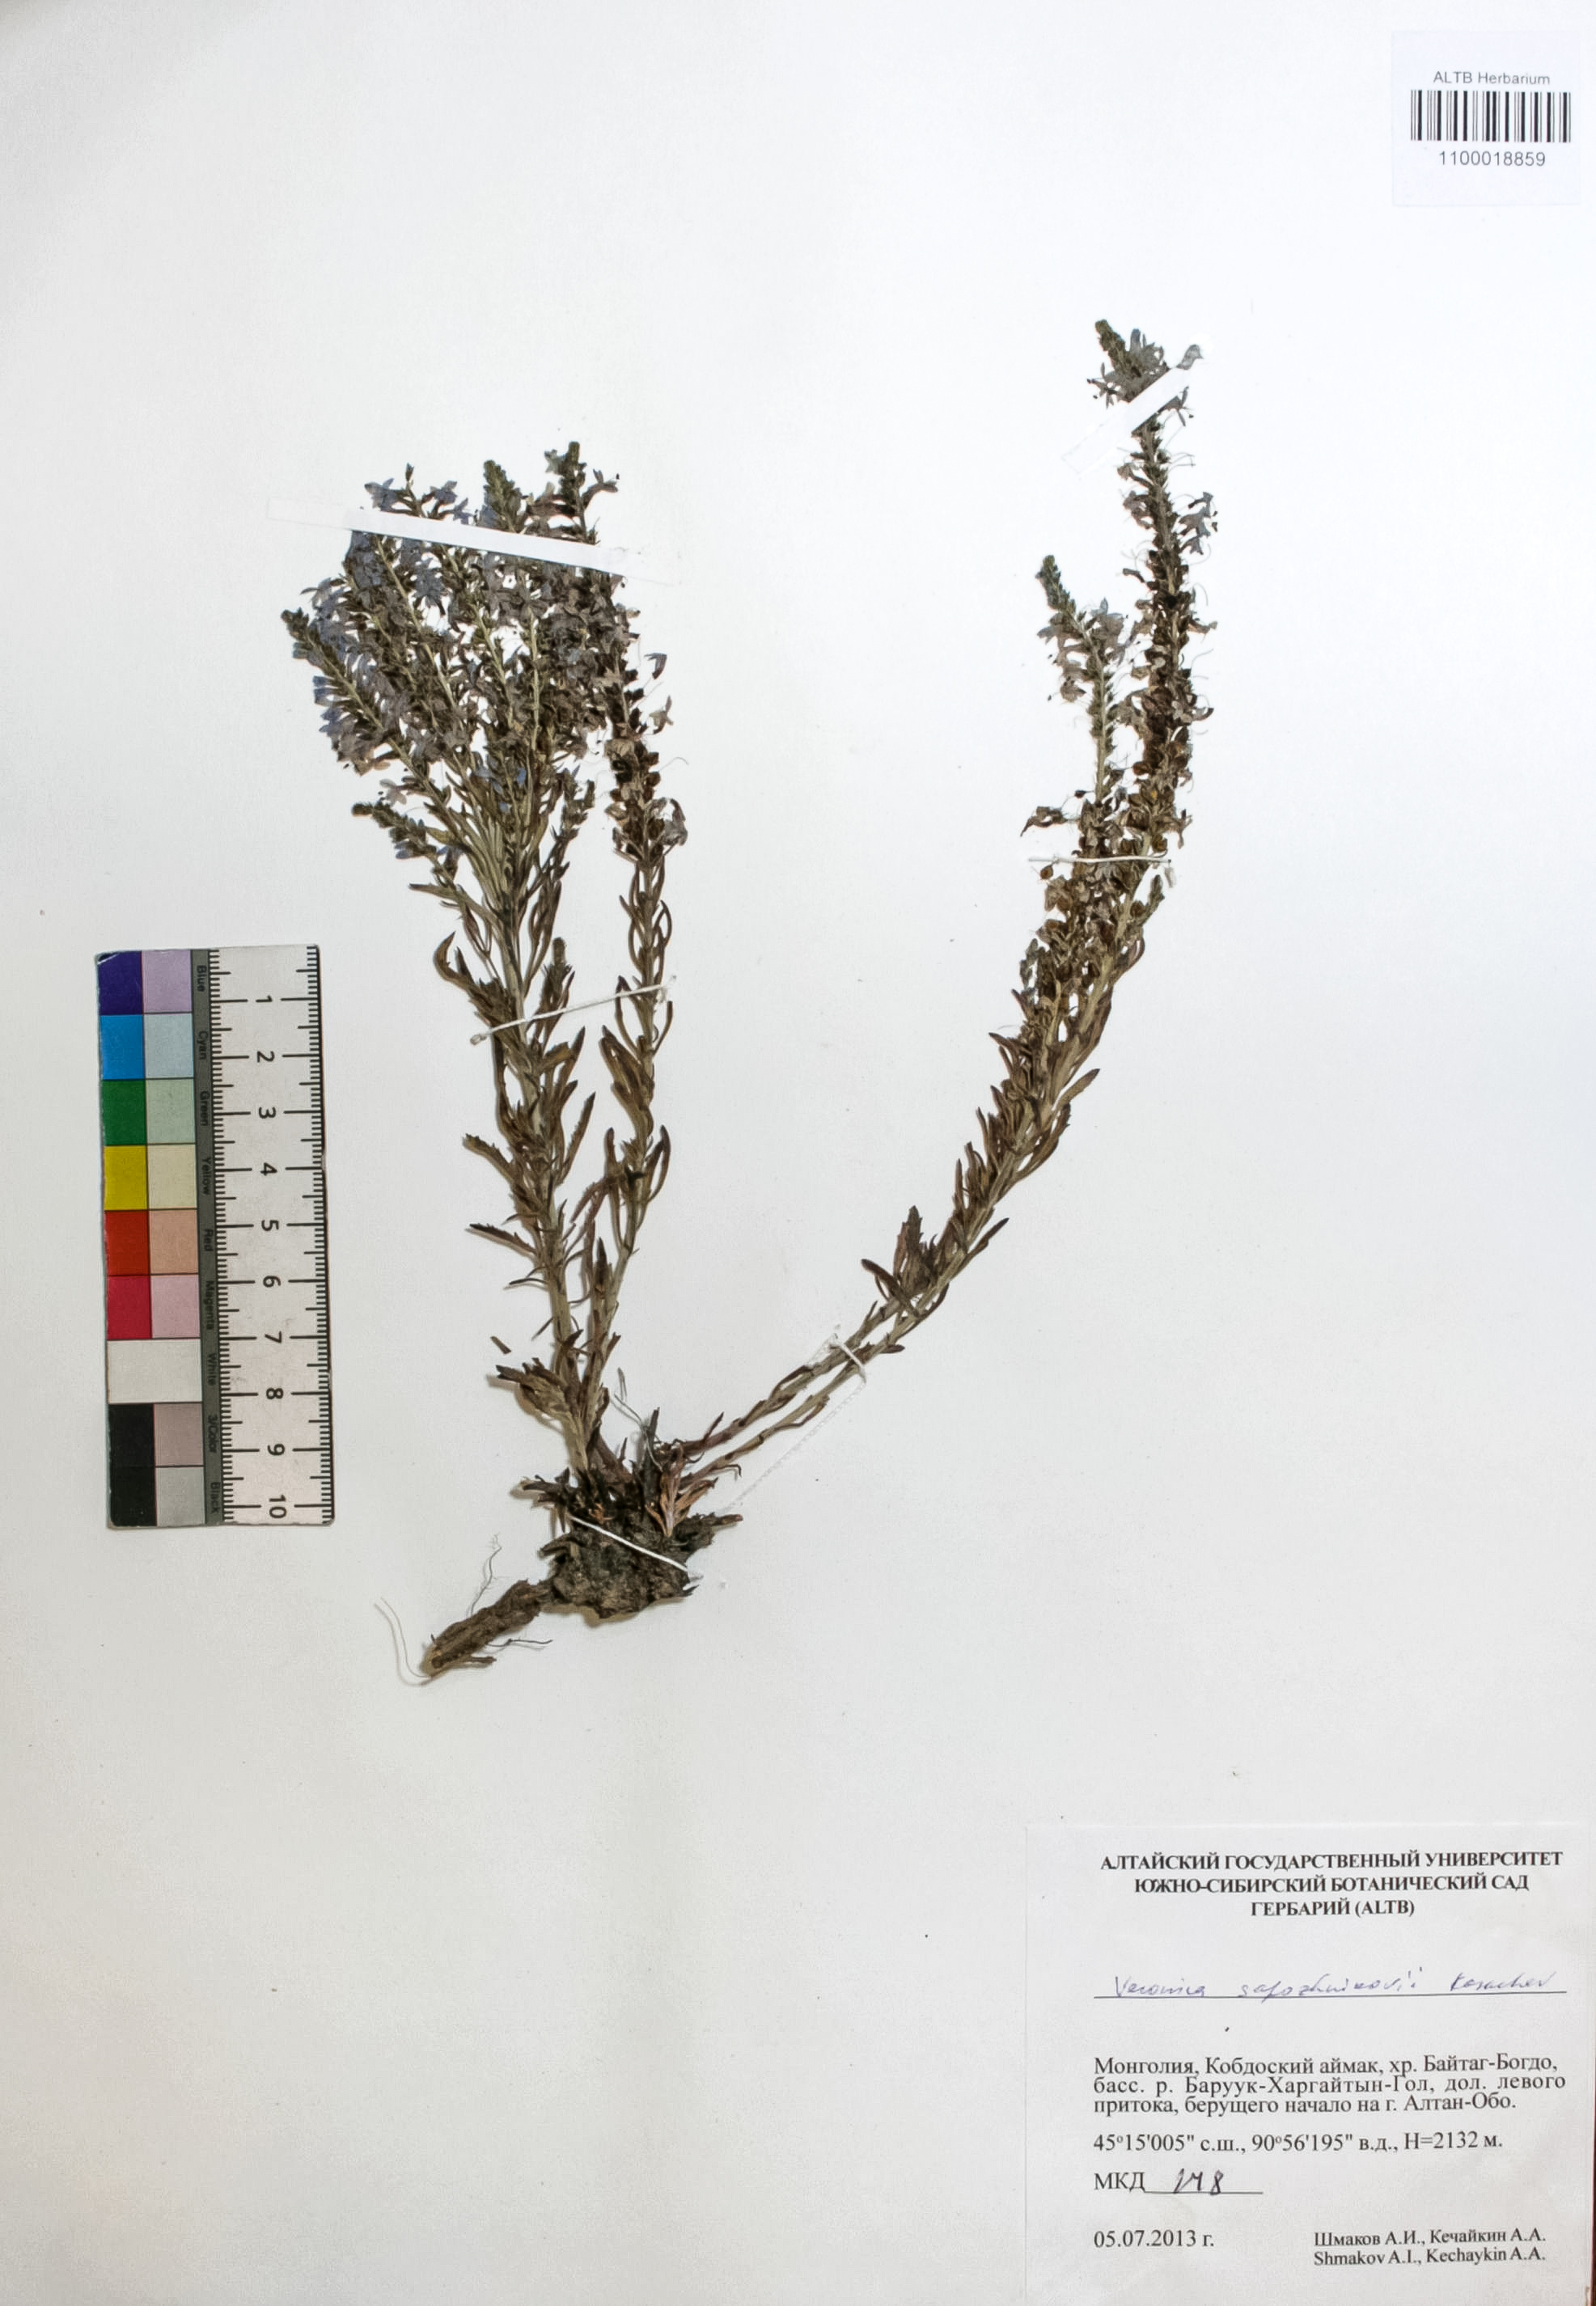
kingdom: Plantae
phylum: Tracheophyta
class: Magnoliopsida
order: Lamiales
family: Plantaginaceae
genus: Veronica
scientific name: Veronica sapozhnikovii
